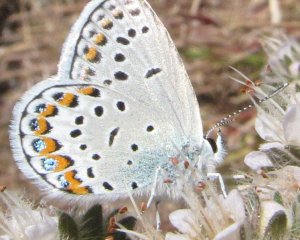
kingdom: Animalia
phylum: Arthropoda
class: Insecta
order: Lepidoptera
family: Lycaenidae
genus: Lycaeides
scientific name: Lycaeides melissa
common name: Melissa Blue
